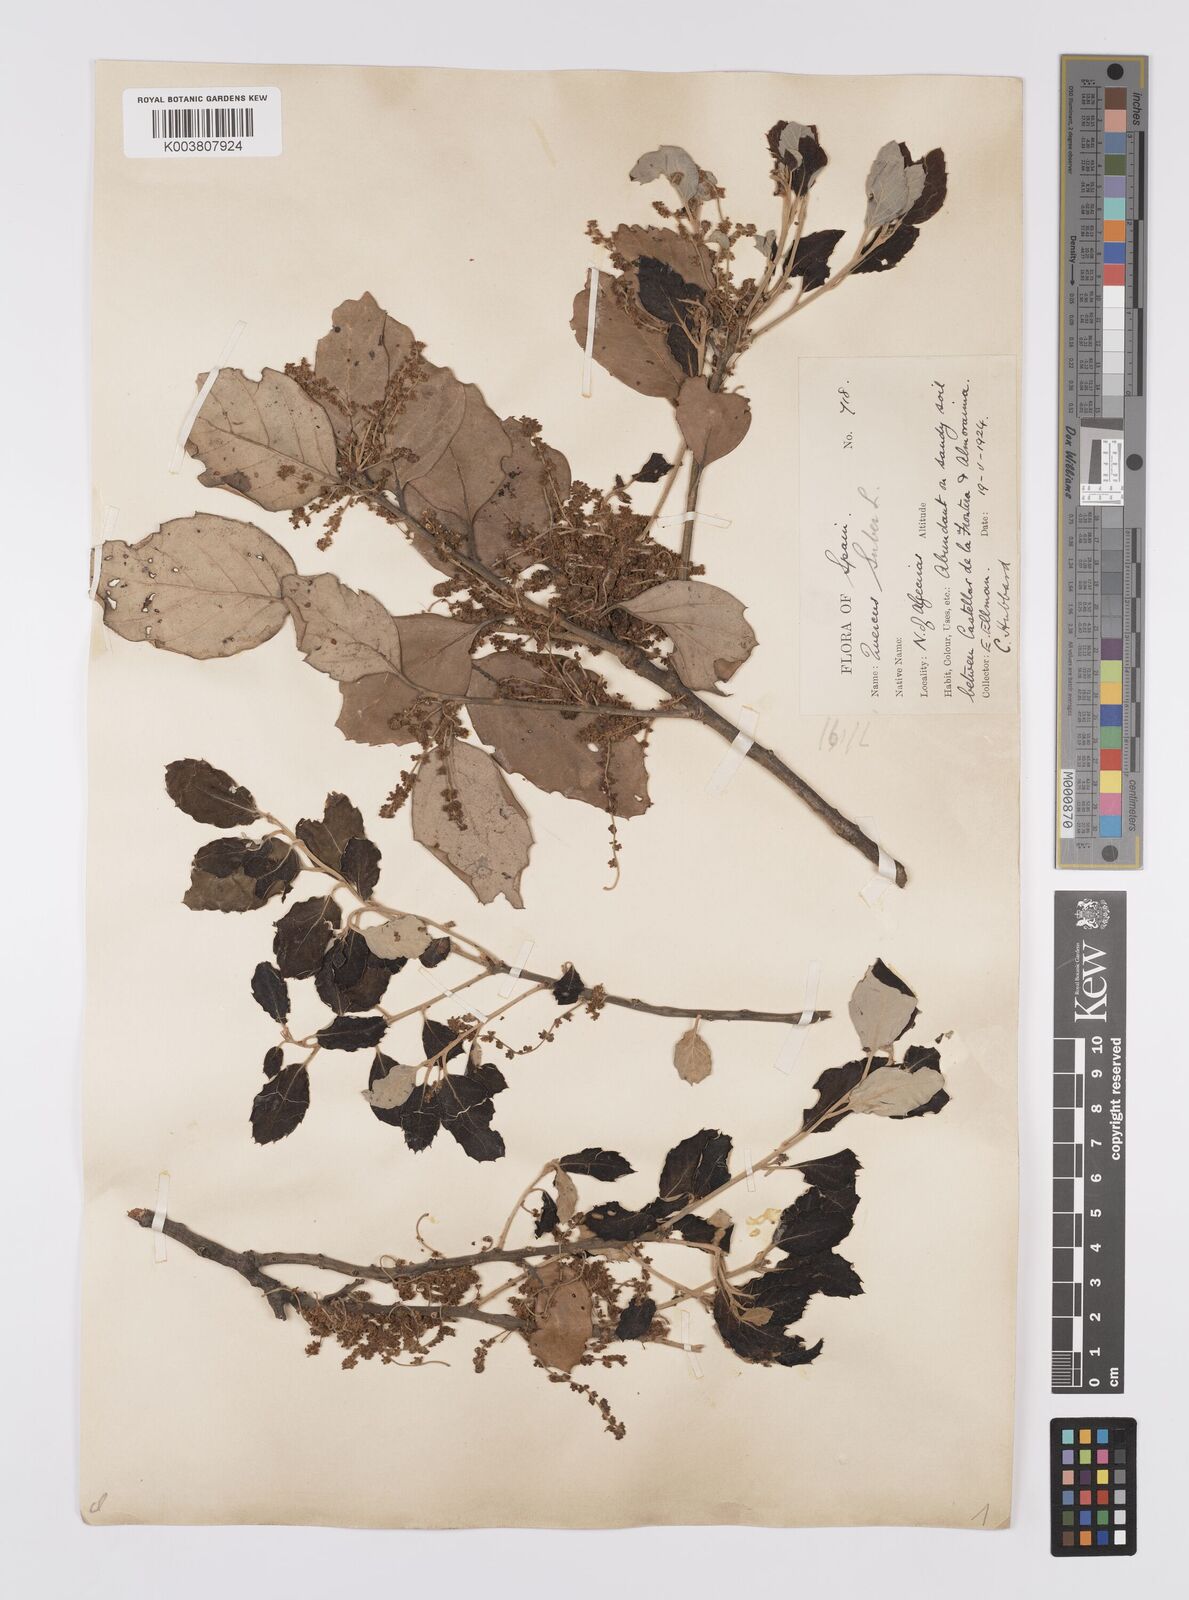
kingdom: Plantae
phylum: Tracheophyta
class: Magnoliopsida
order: Fagales
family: Fagaceae
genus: Quercus
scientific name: Quercus suber
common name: Cork oak
